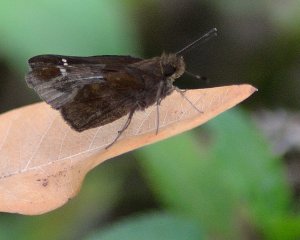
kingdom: Animalia
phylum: Arthropoda
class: Insecta
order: Lepidoptera
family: Hesperiidae
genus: Lerema
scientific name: Lerema accius
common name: Clouded Skipper
